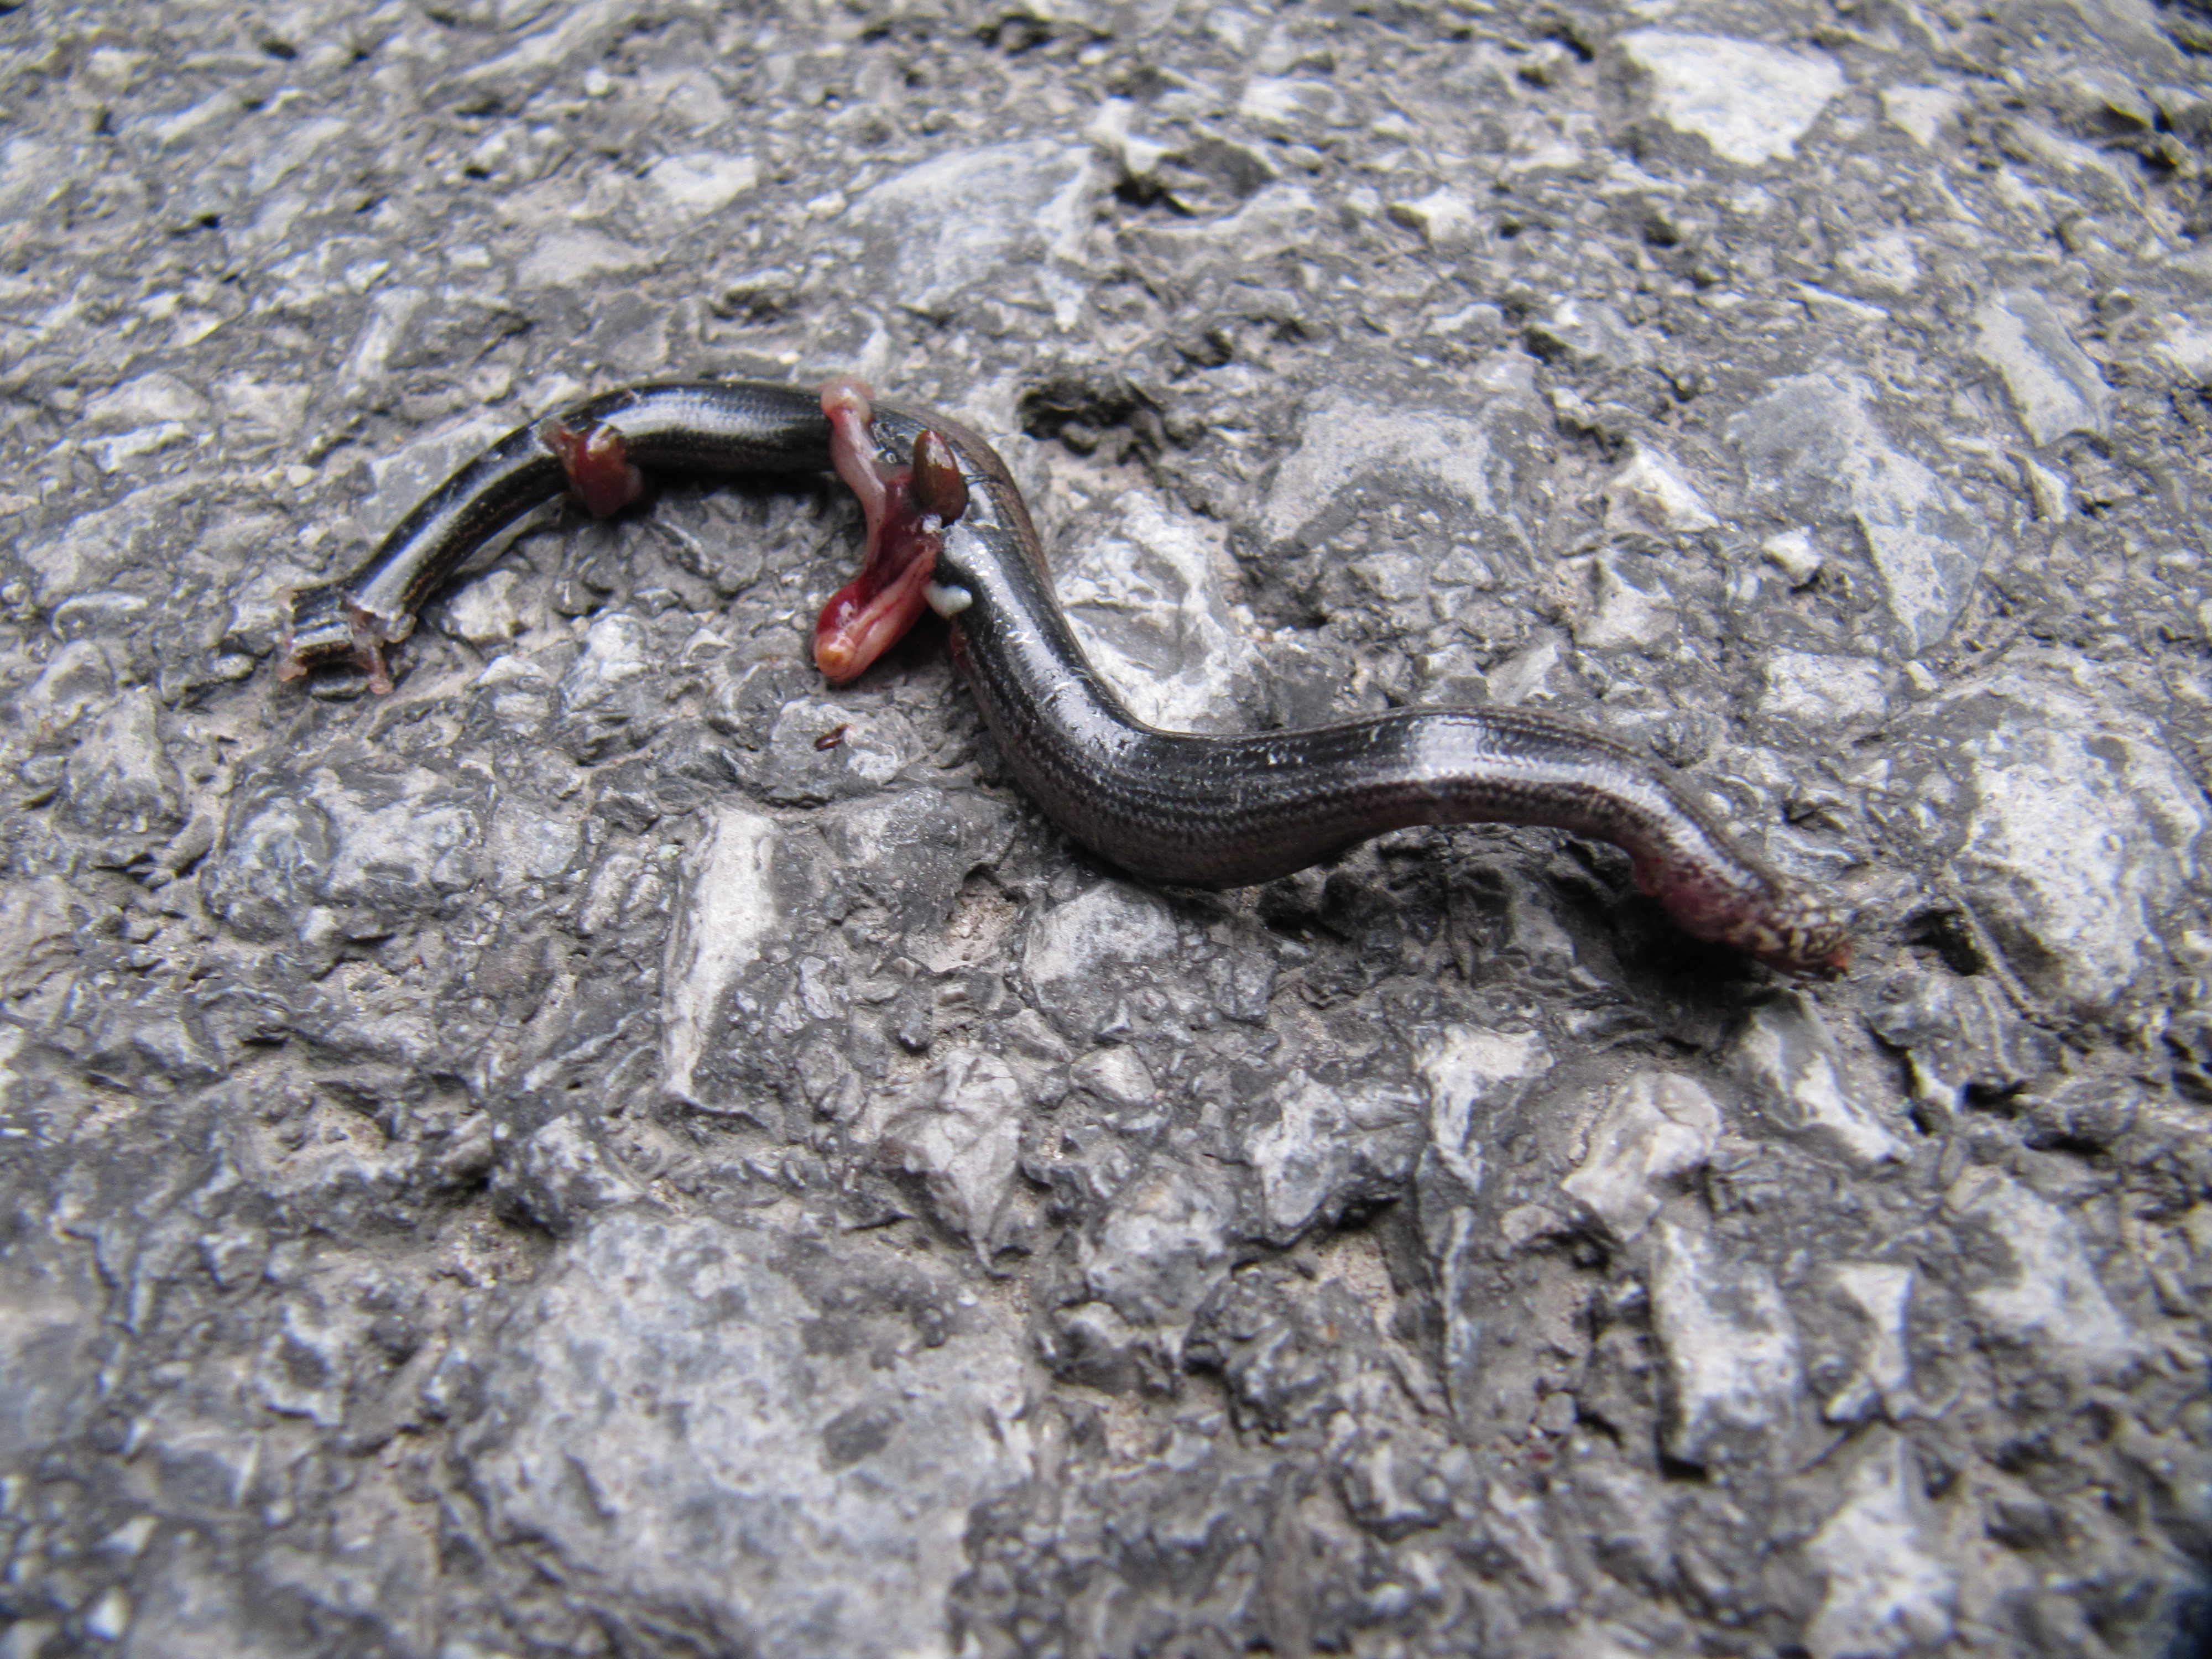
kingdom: Animalia
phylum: Chordata
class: Squamata
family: Anguidae
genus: Anguis
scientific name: Anguis fragilis
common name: Slow worm
